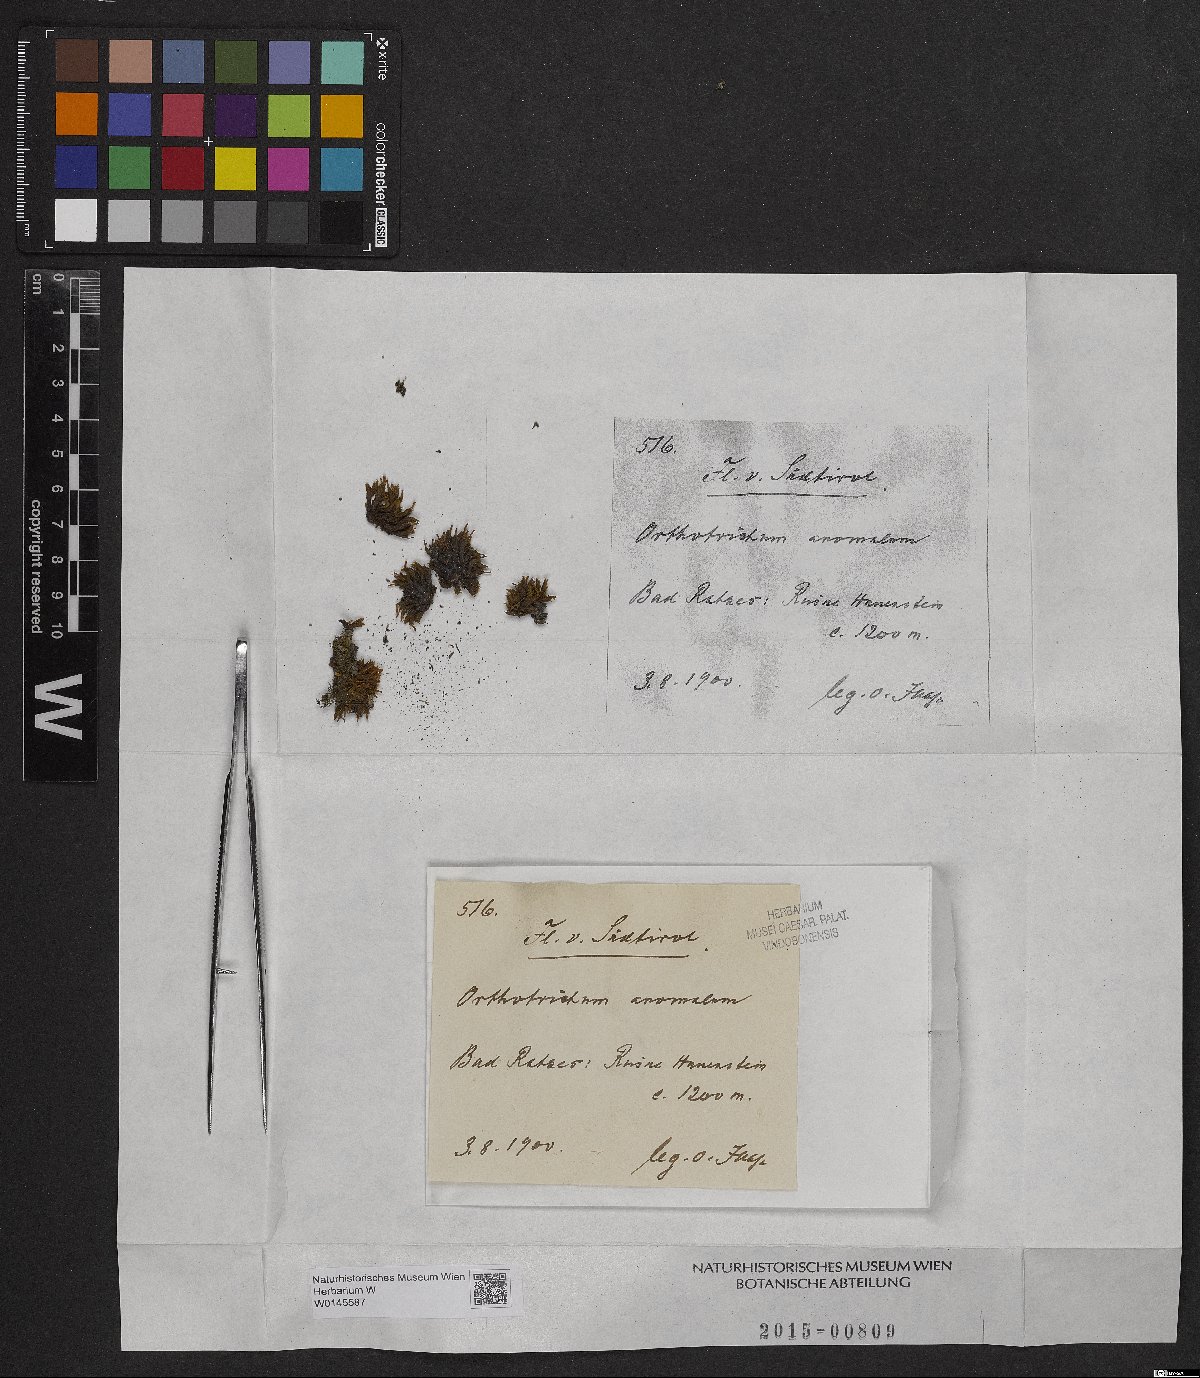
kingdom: Plantae
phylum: Bryophyta
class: Bryopsida
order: Orthotrichales
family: Orthotrichaceae
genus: Orthotrichum
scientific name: Orthotrichum anomalum
